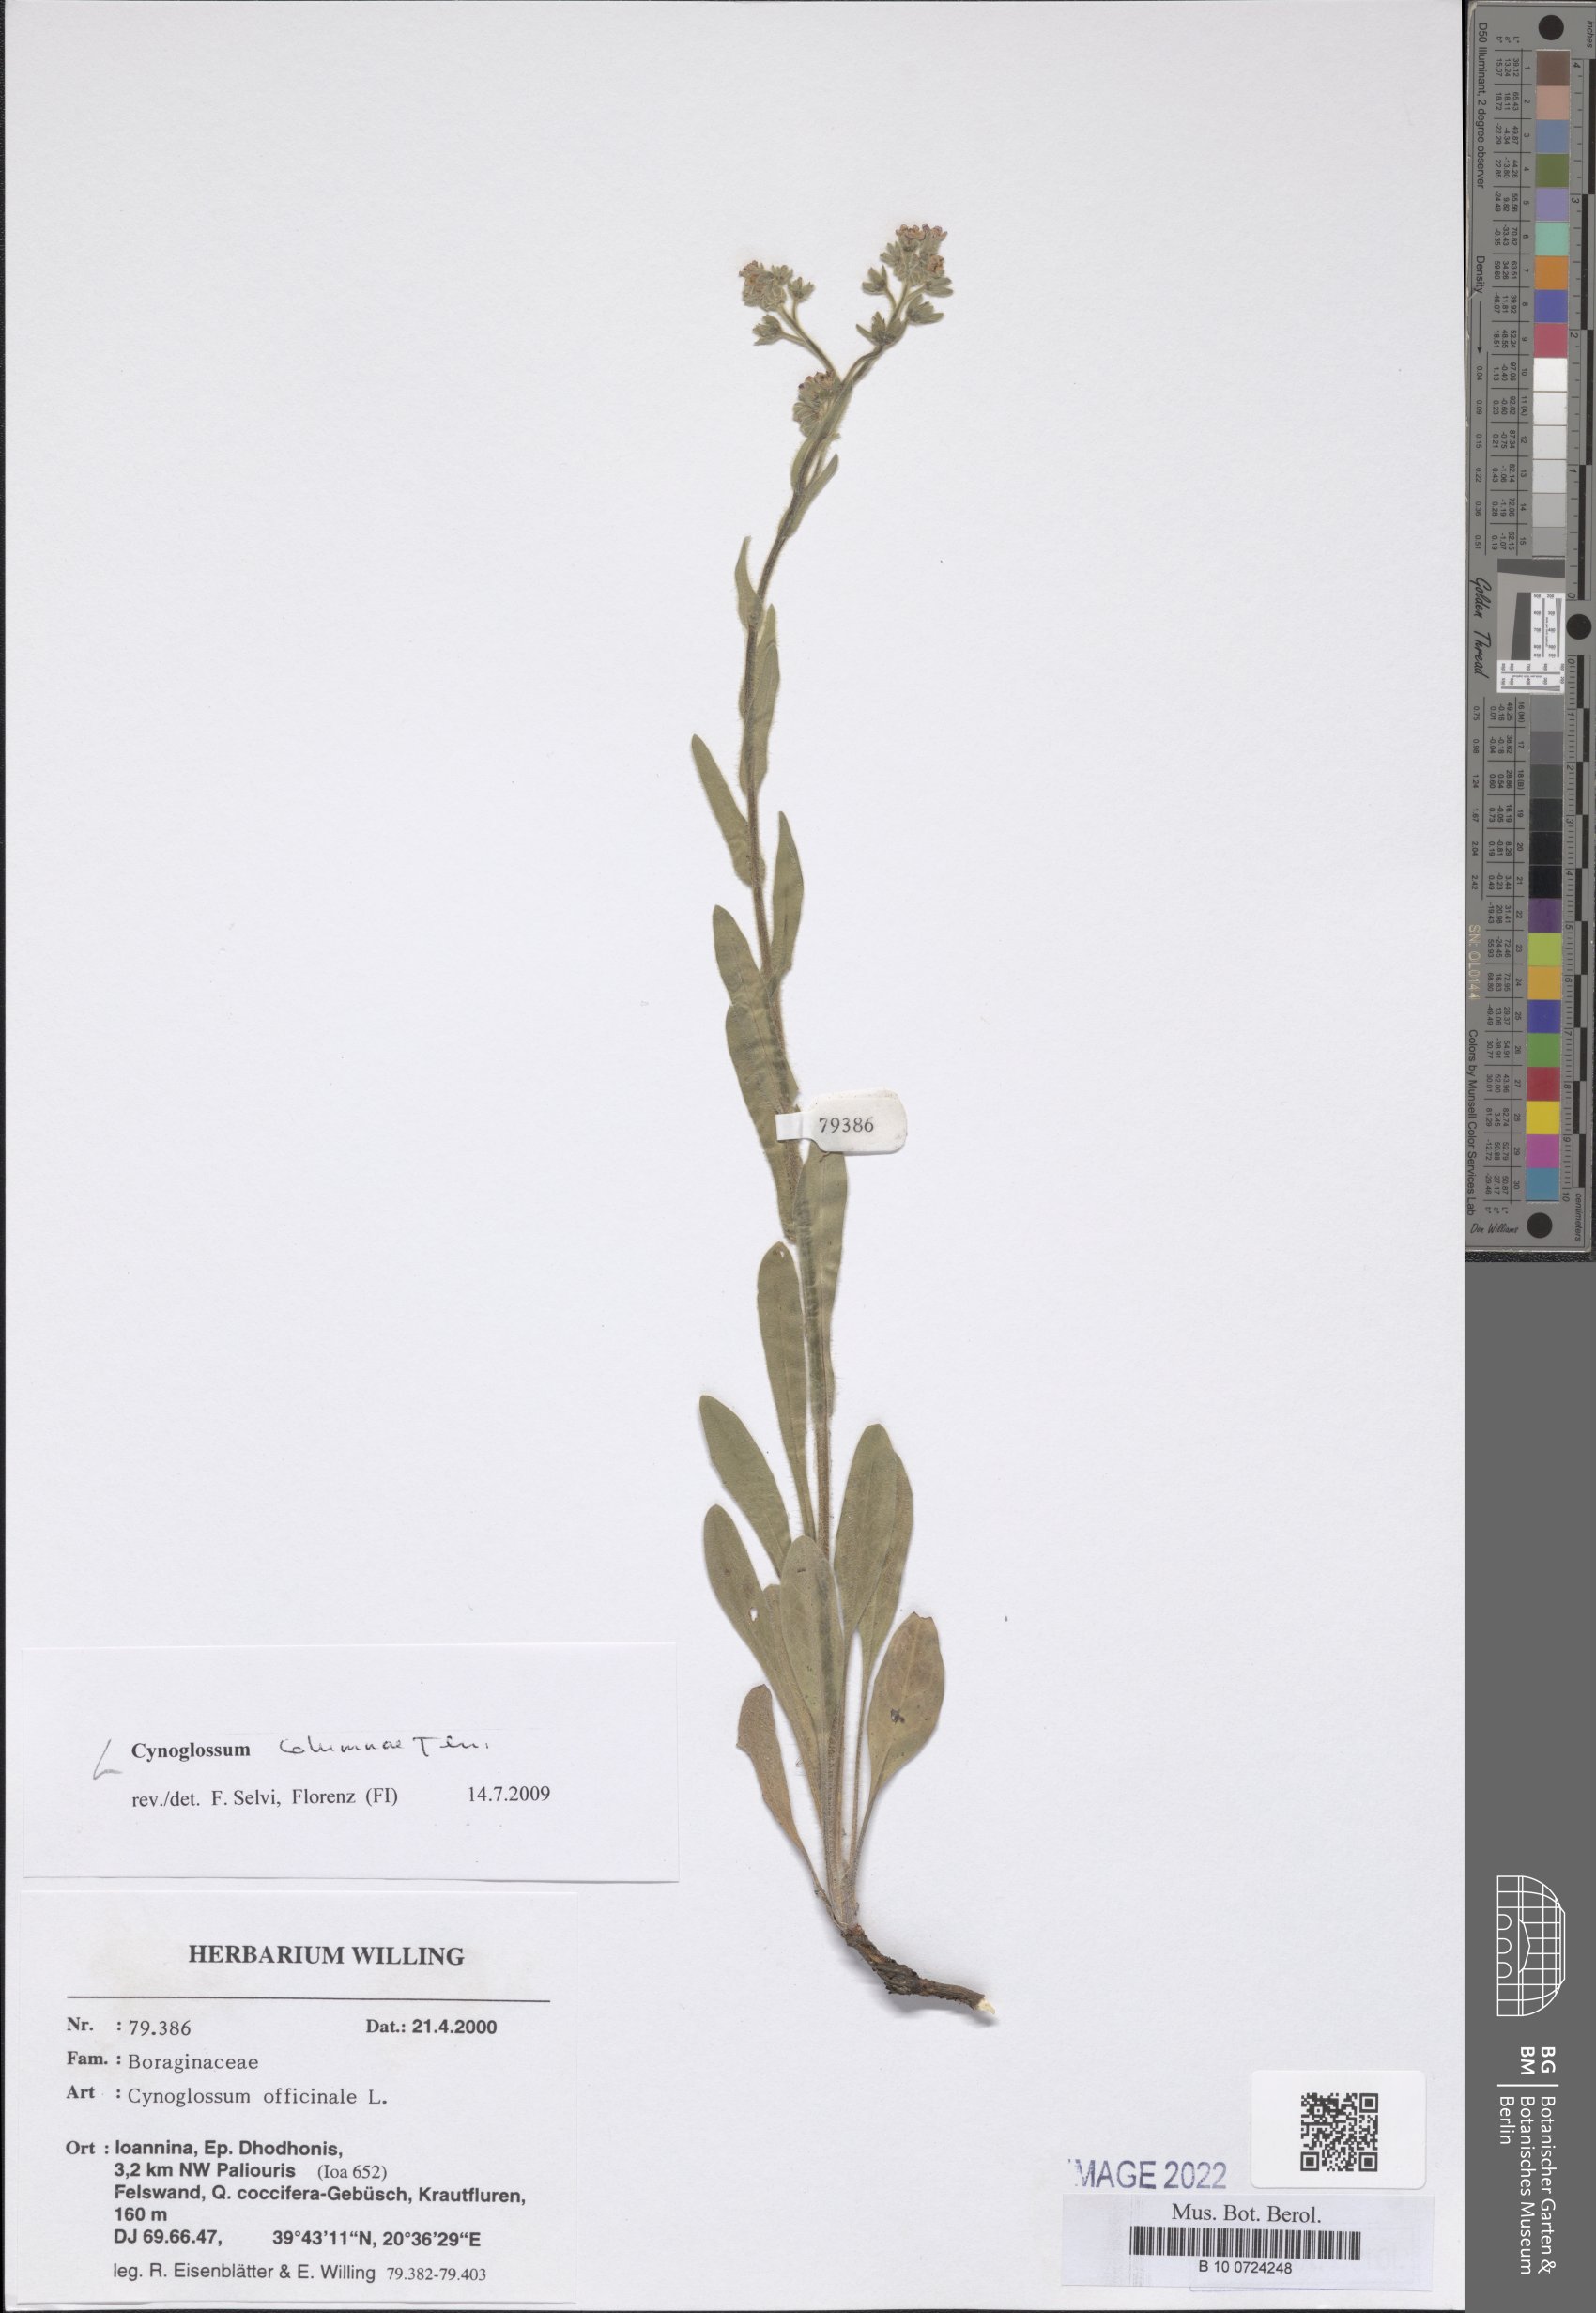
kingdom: Plantae
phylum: Tracheophyta
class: Magnoliopsida
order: Boraginales
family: Boraginaceae
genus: Rindera
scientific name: Rindera columnae
